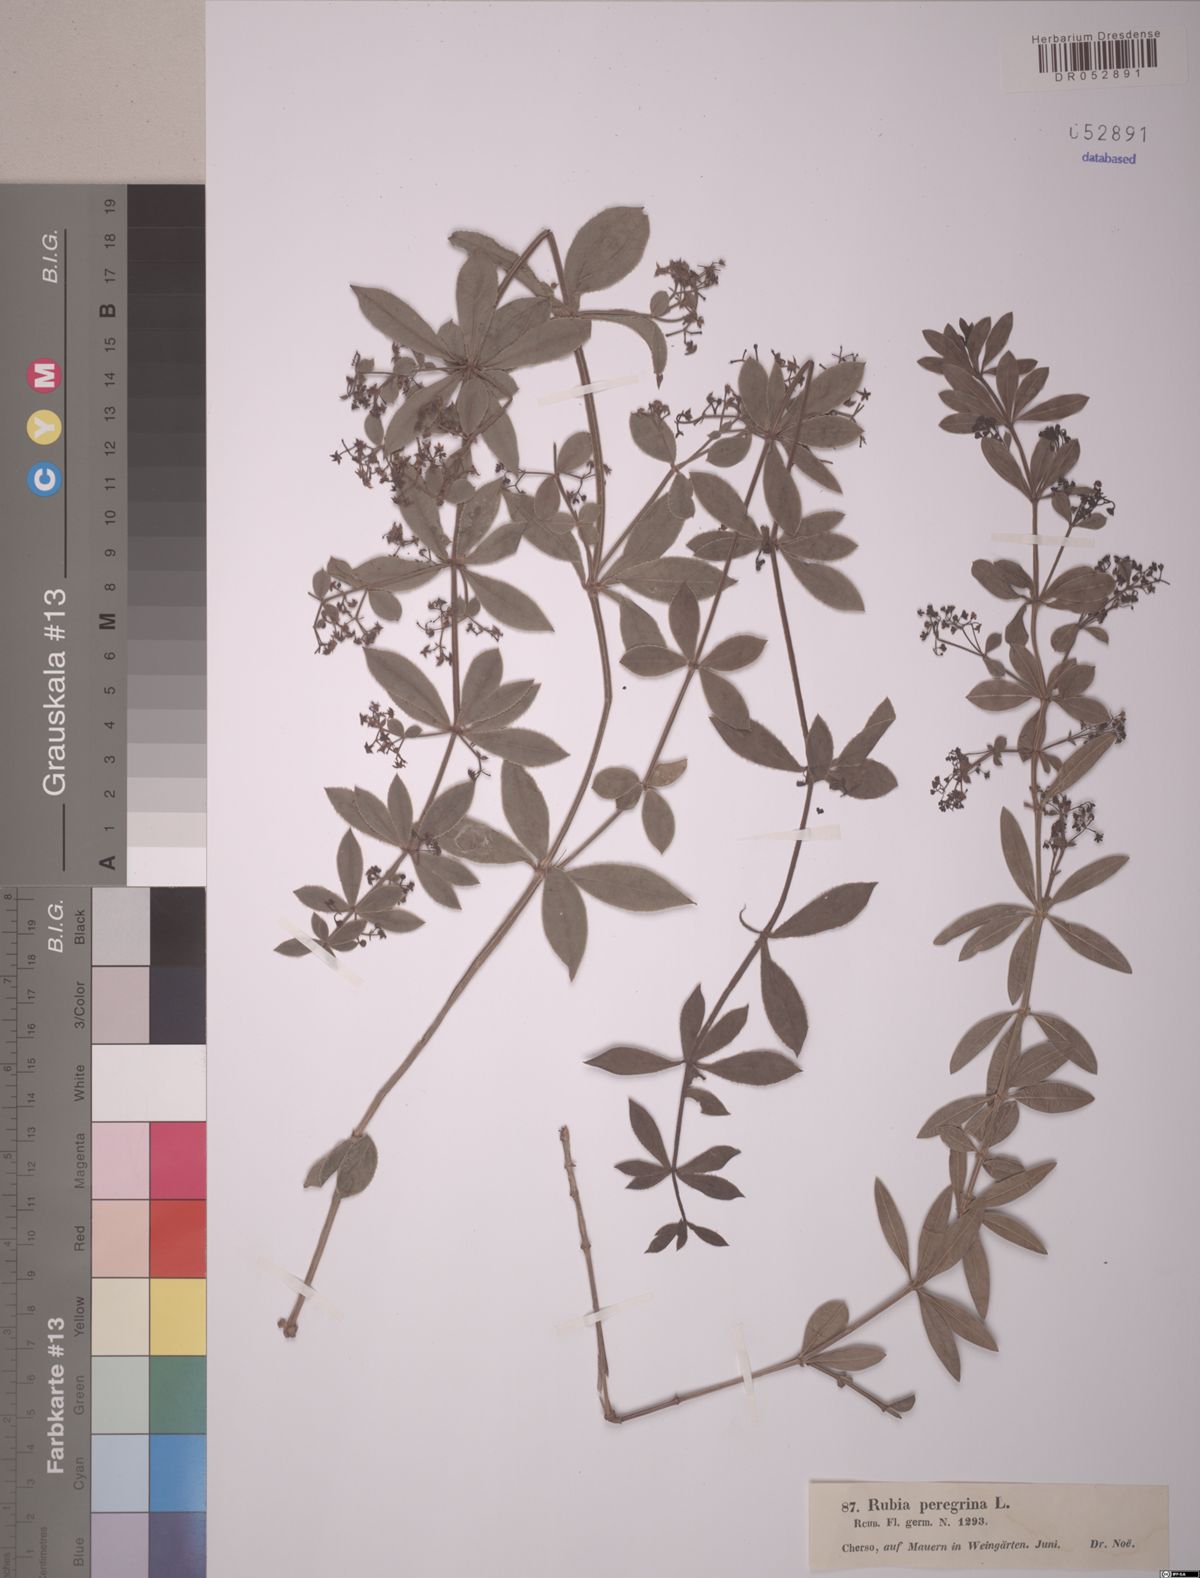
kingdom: Plantae
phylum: Tracheophyta
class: Magnoliopsida
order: Gentianales
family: Rubiaceae
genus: Rubia
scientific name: Rubia peregrina
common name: Wild madder
